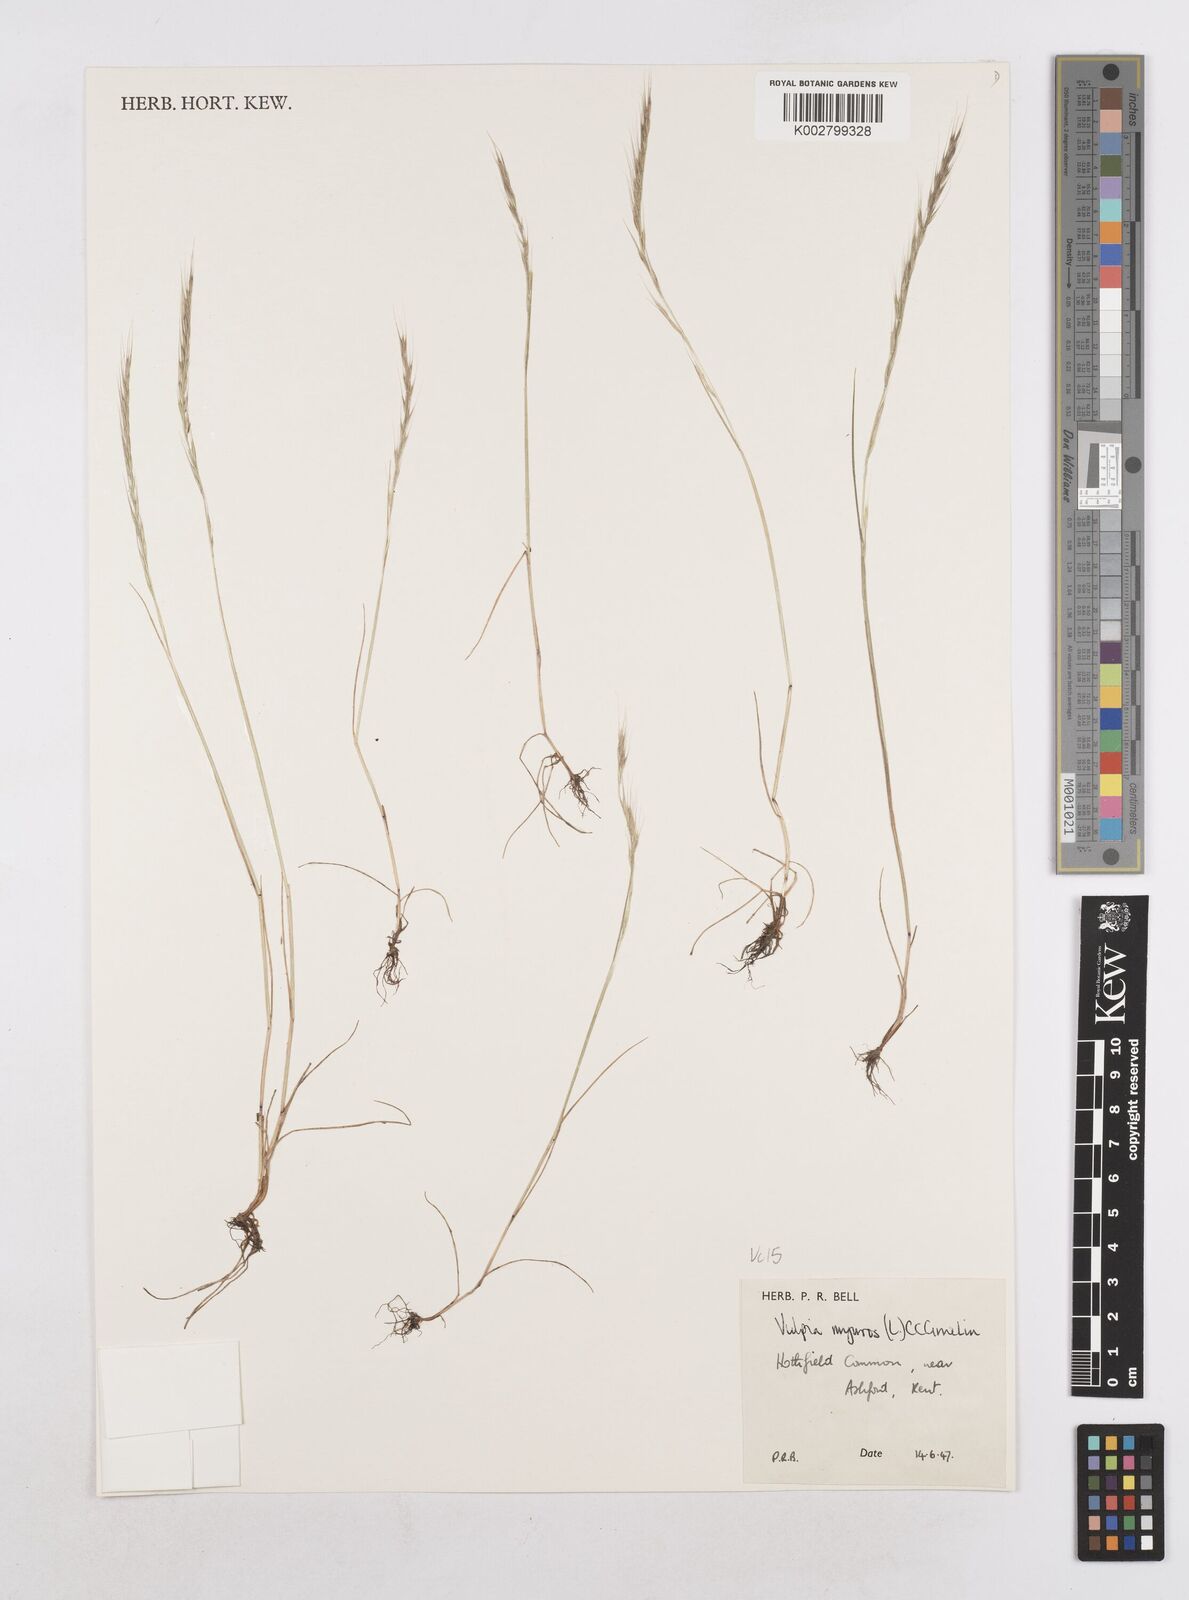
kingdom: Plantae
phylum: Tracheophyta
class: Liliopsida
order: Poales
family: Poaceae
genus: Festuca
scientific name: Festuca myuros
